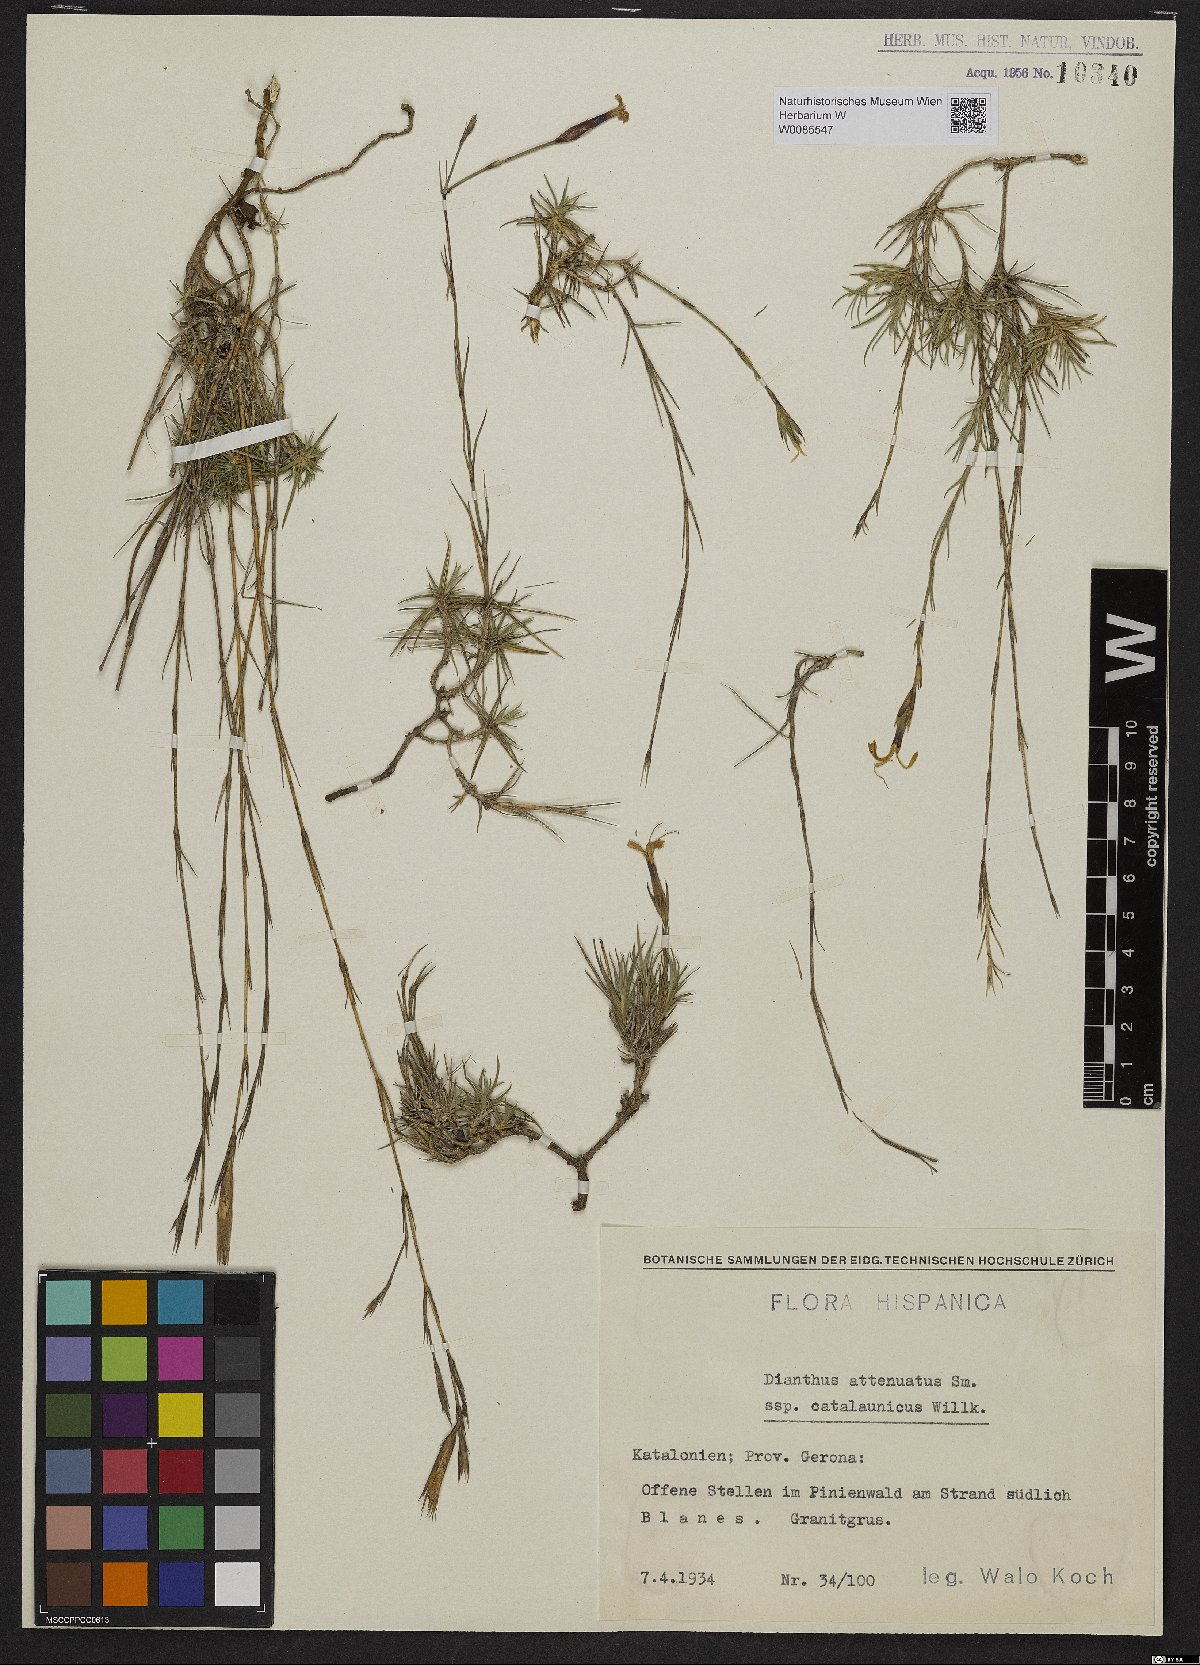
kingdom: Plantae
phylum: Tracheophyta
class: Magnoliopsida
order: Caryophyllales
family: Caryophyllaceae
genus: Dianthus
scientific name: Dianthus pyrenaicus
